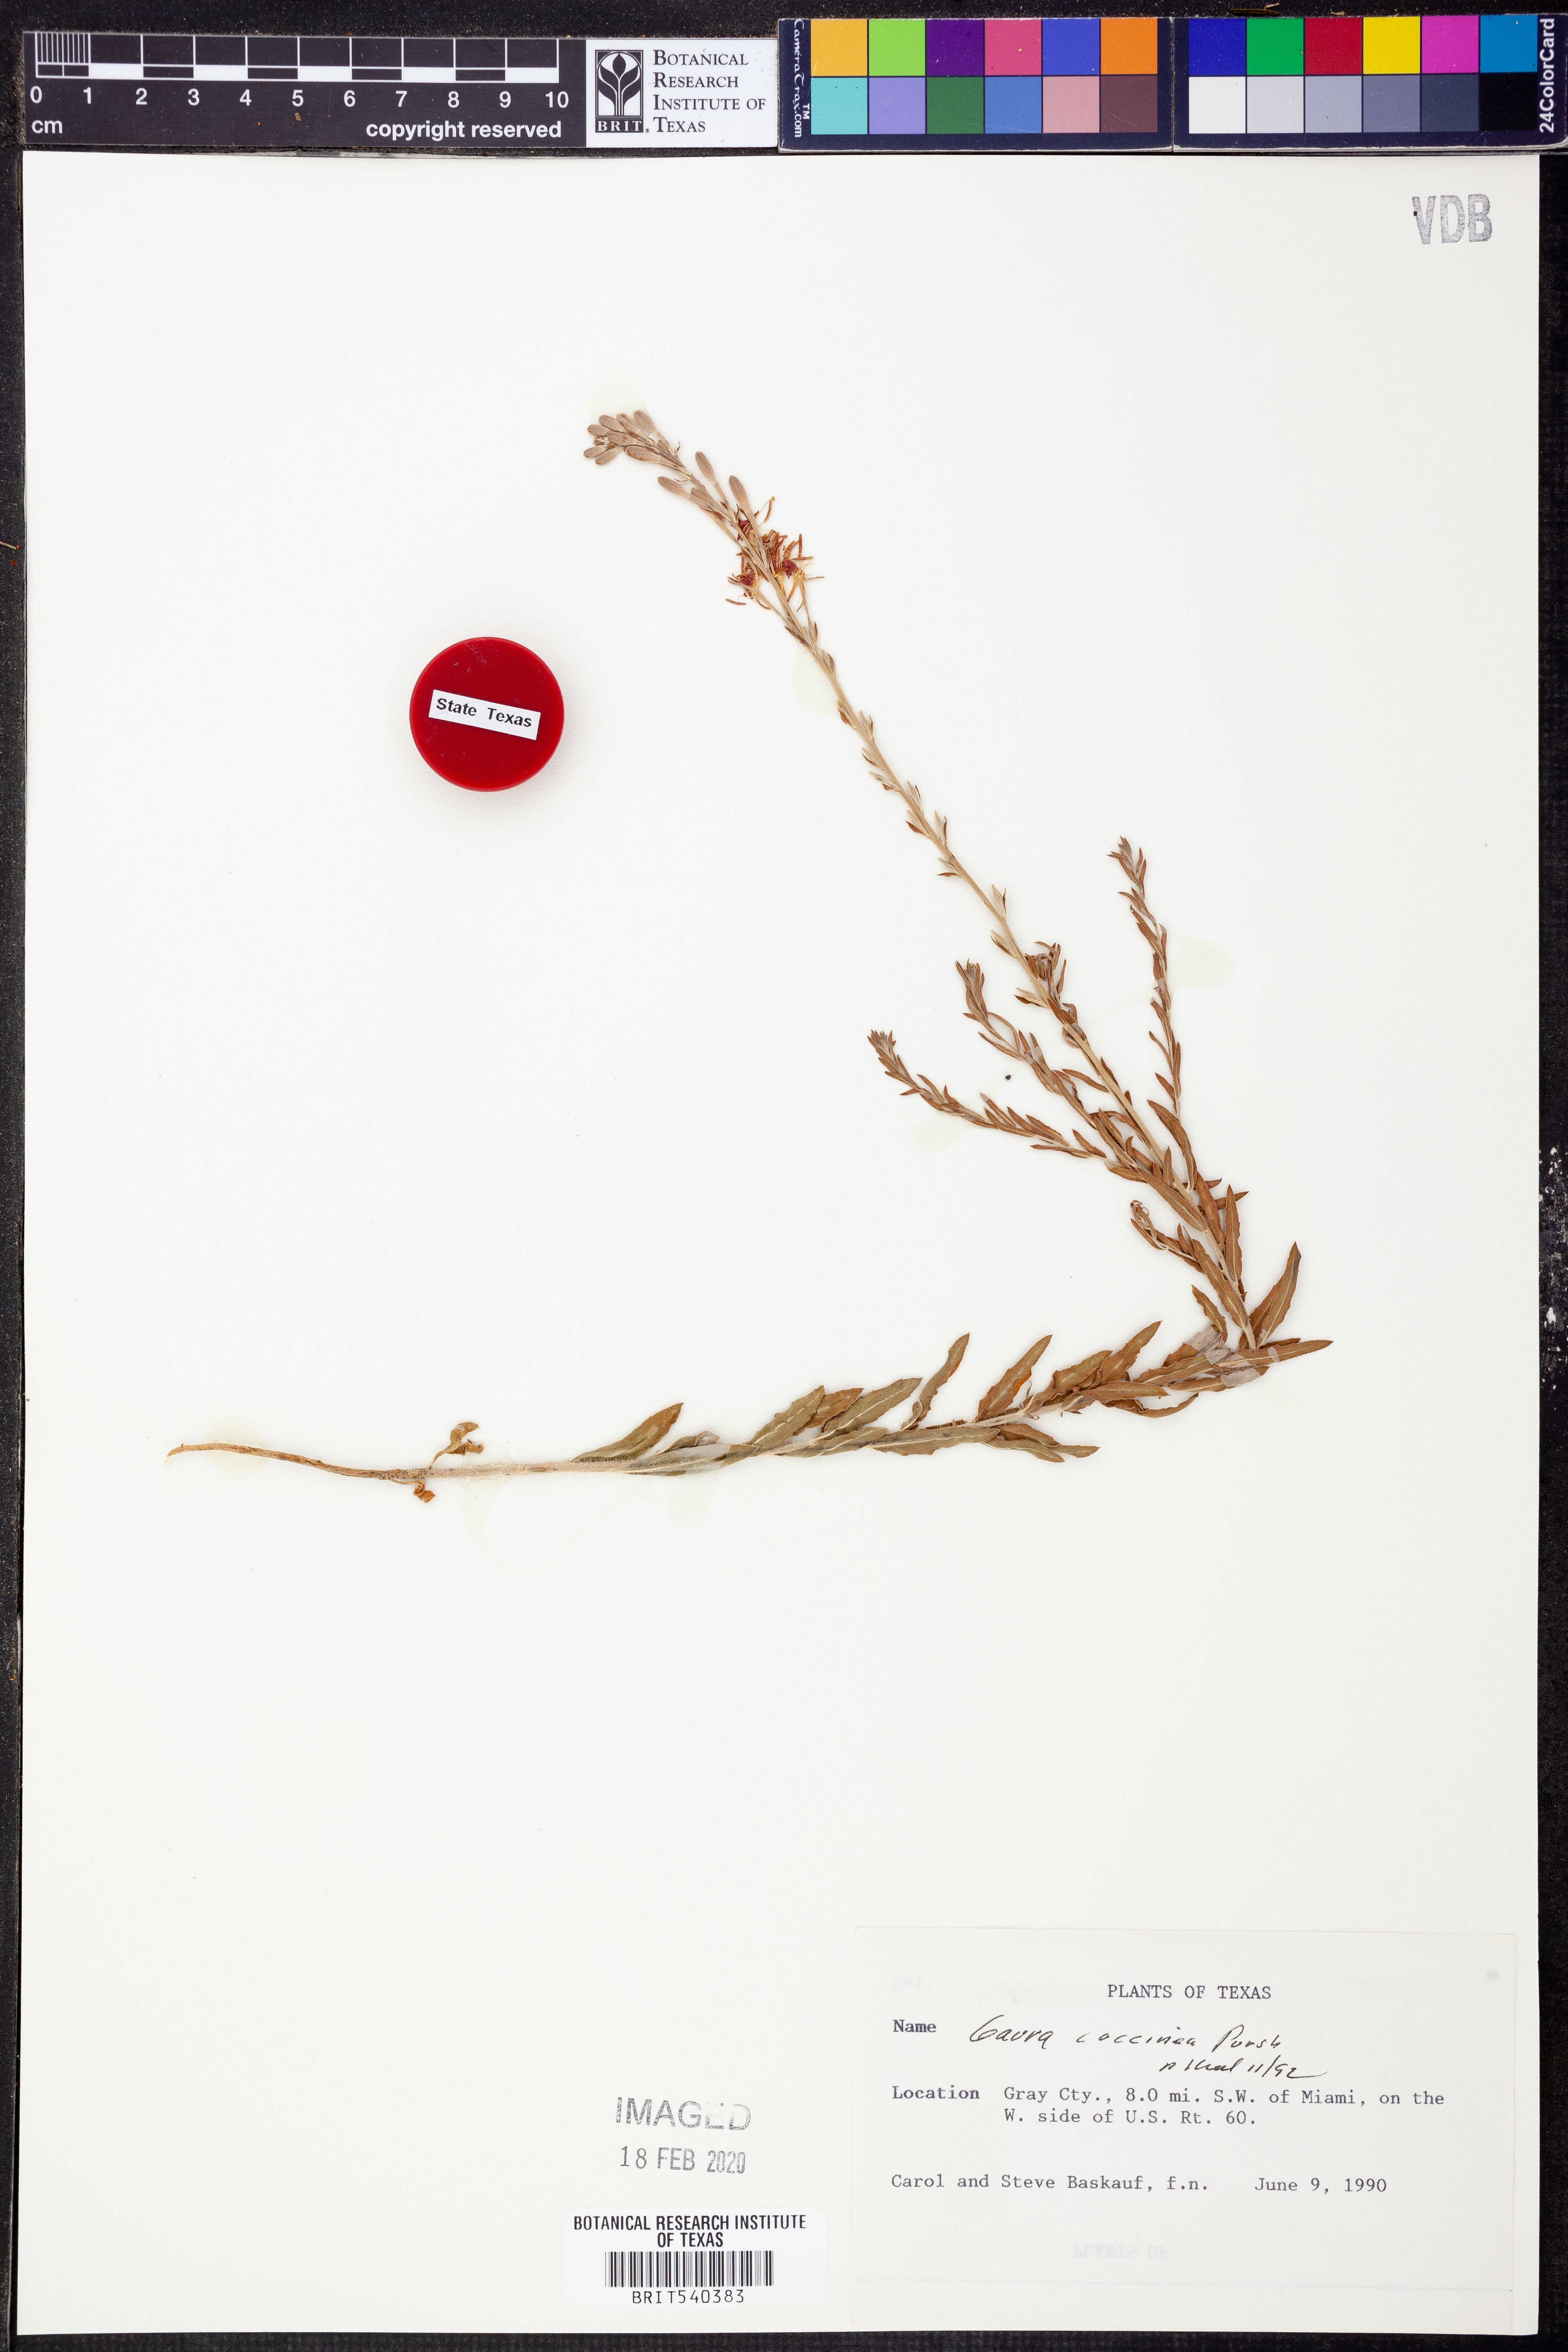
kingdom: Plantae
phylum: Tracheophyta
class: Magnoliopsida
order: Myrtales
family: Onagraceae
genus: Oenothera
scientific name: Oenothera suffrutescens
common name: Scarlet beeblossom
